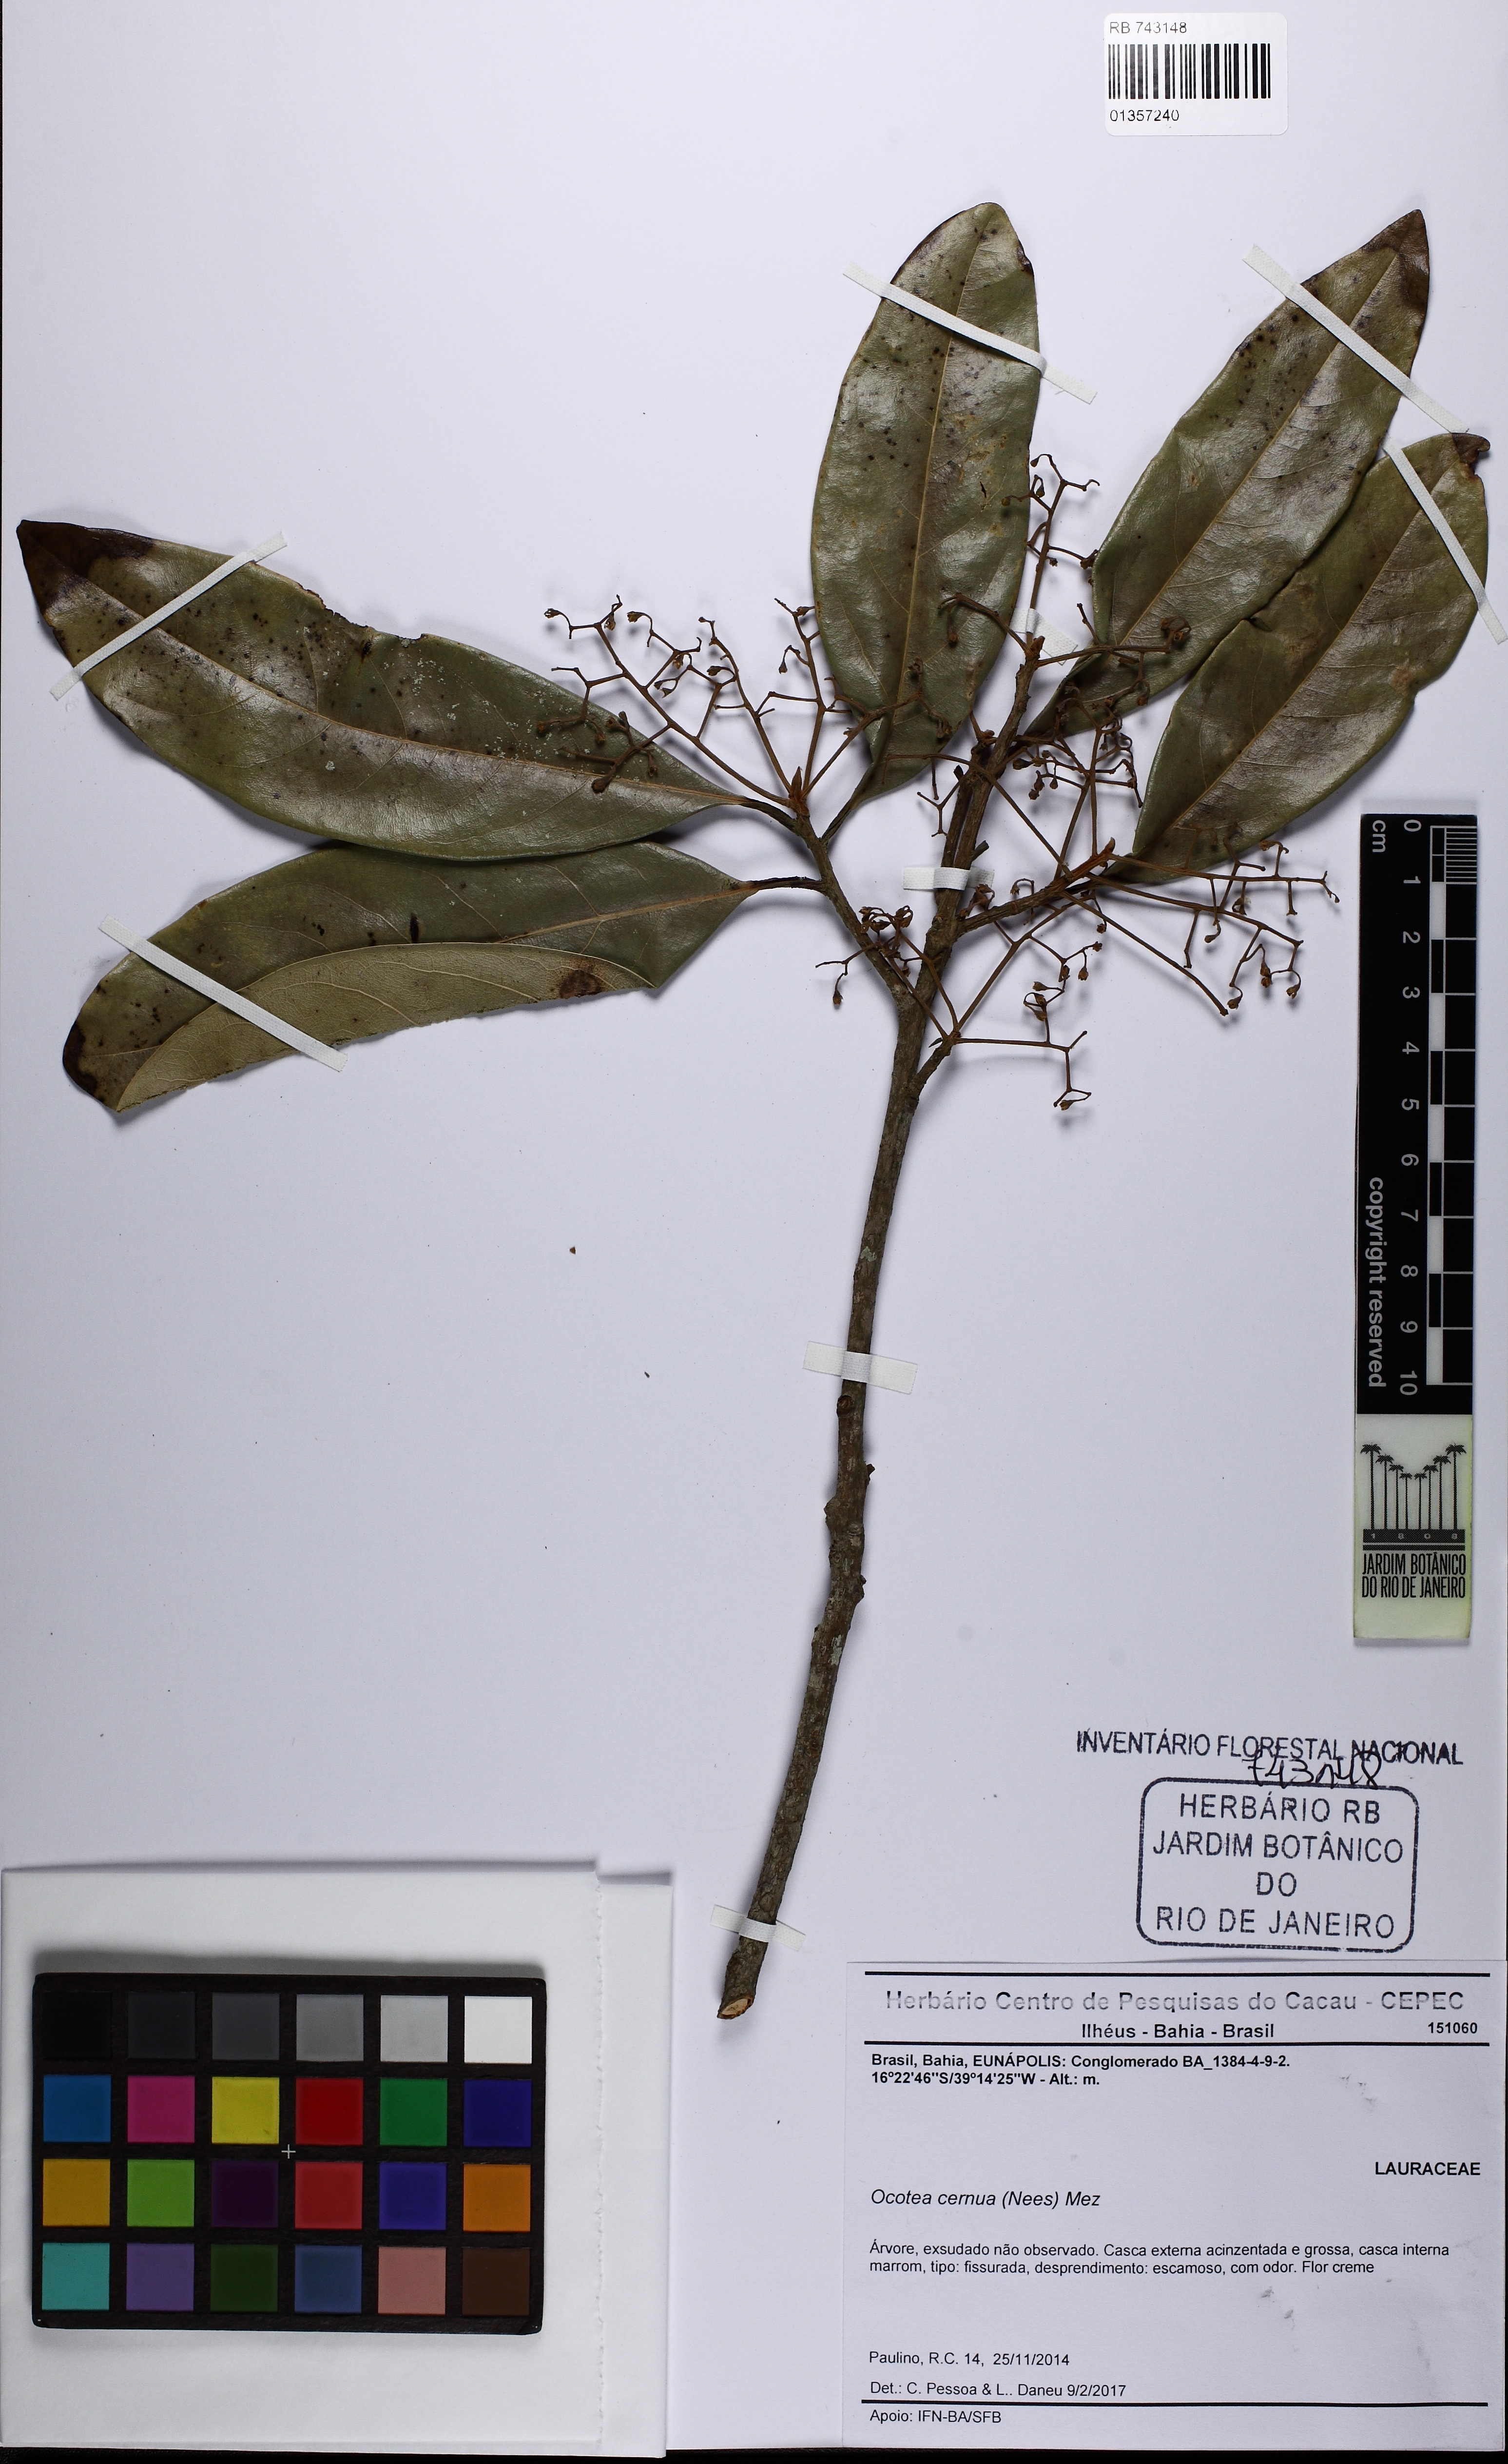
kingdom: Plantae
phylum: Tracheophyta
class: Magnoliopsida
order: Laurales
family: Lauraceae
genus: Ocotea
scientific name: Ocotea leptobotra
